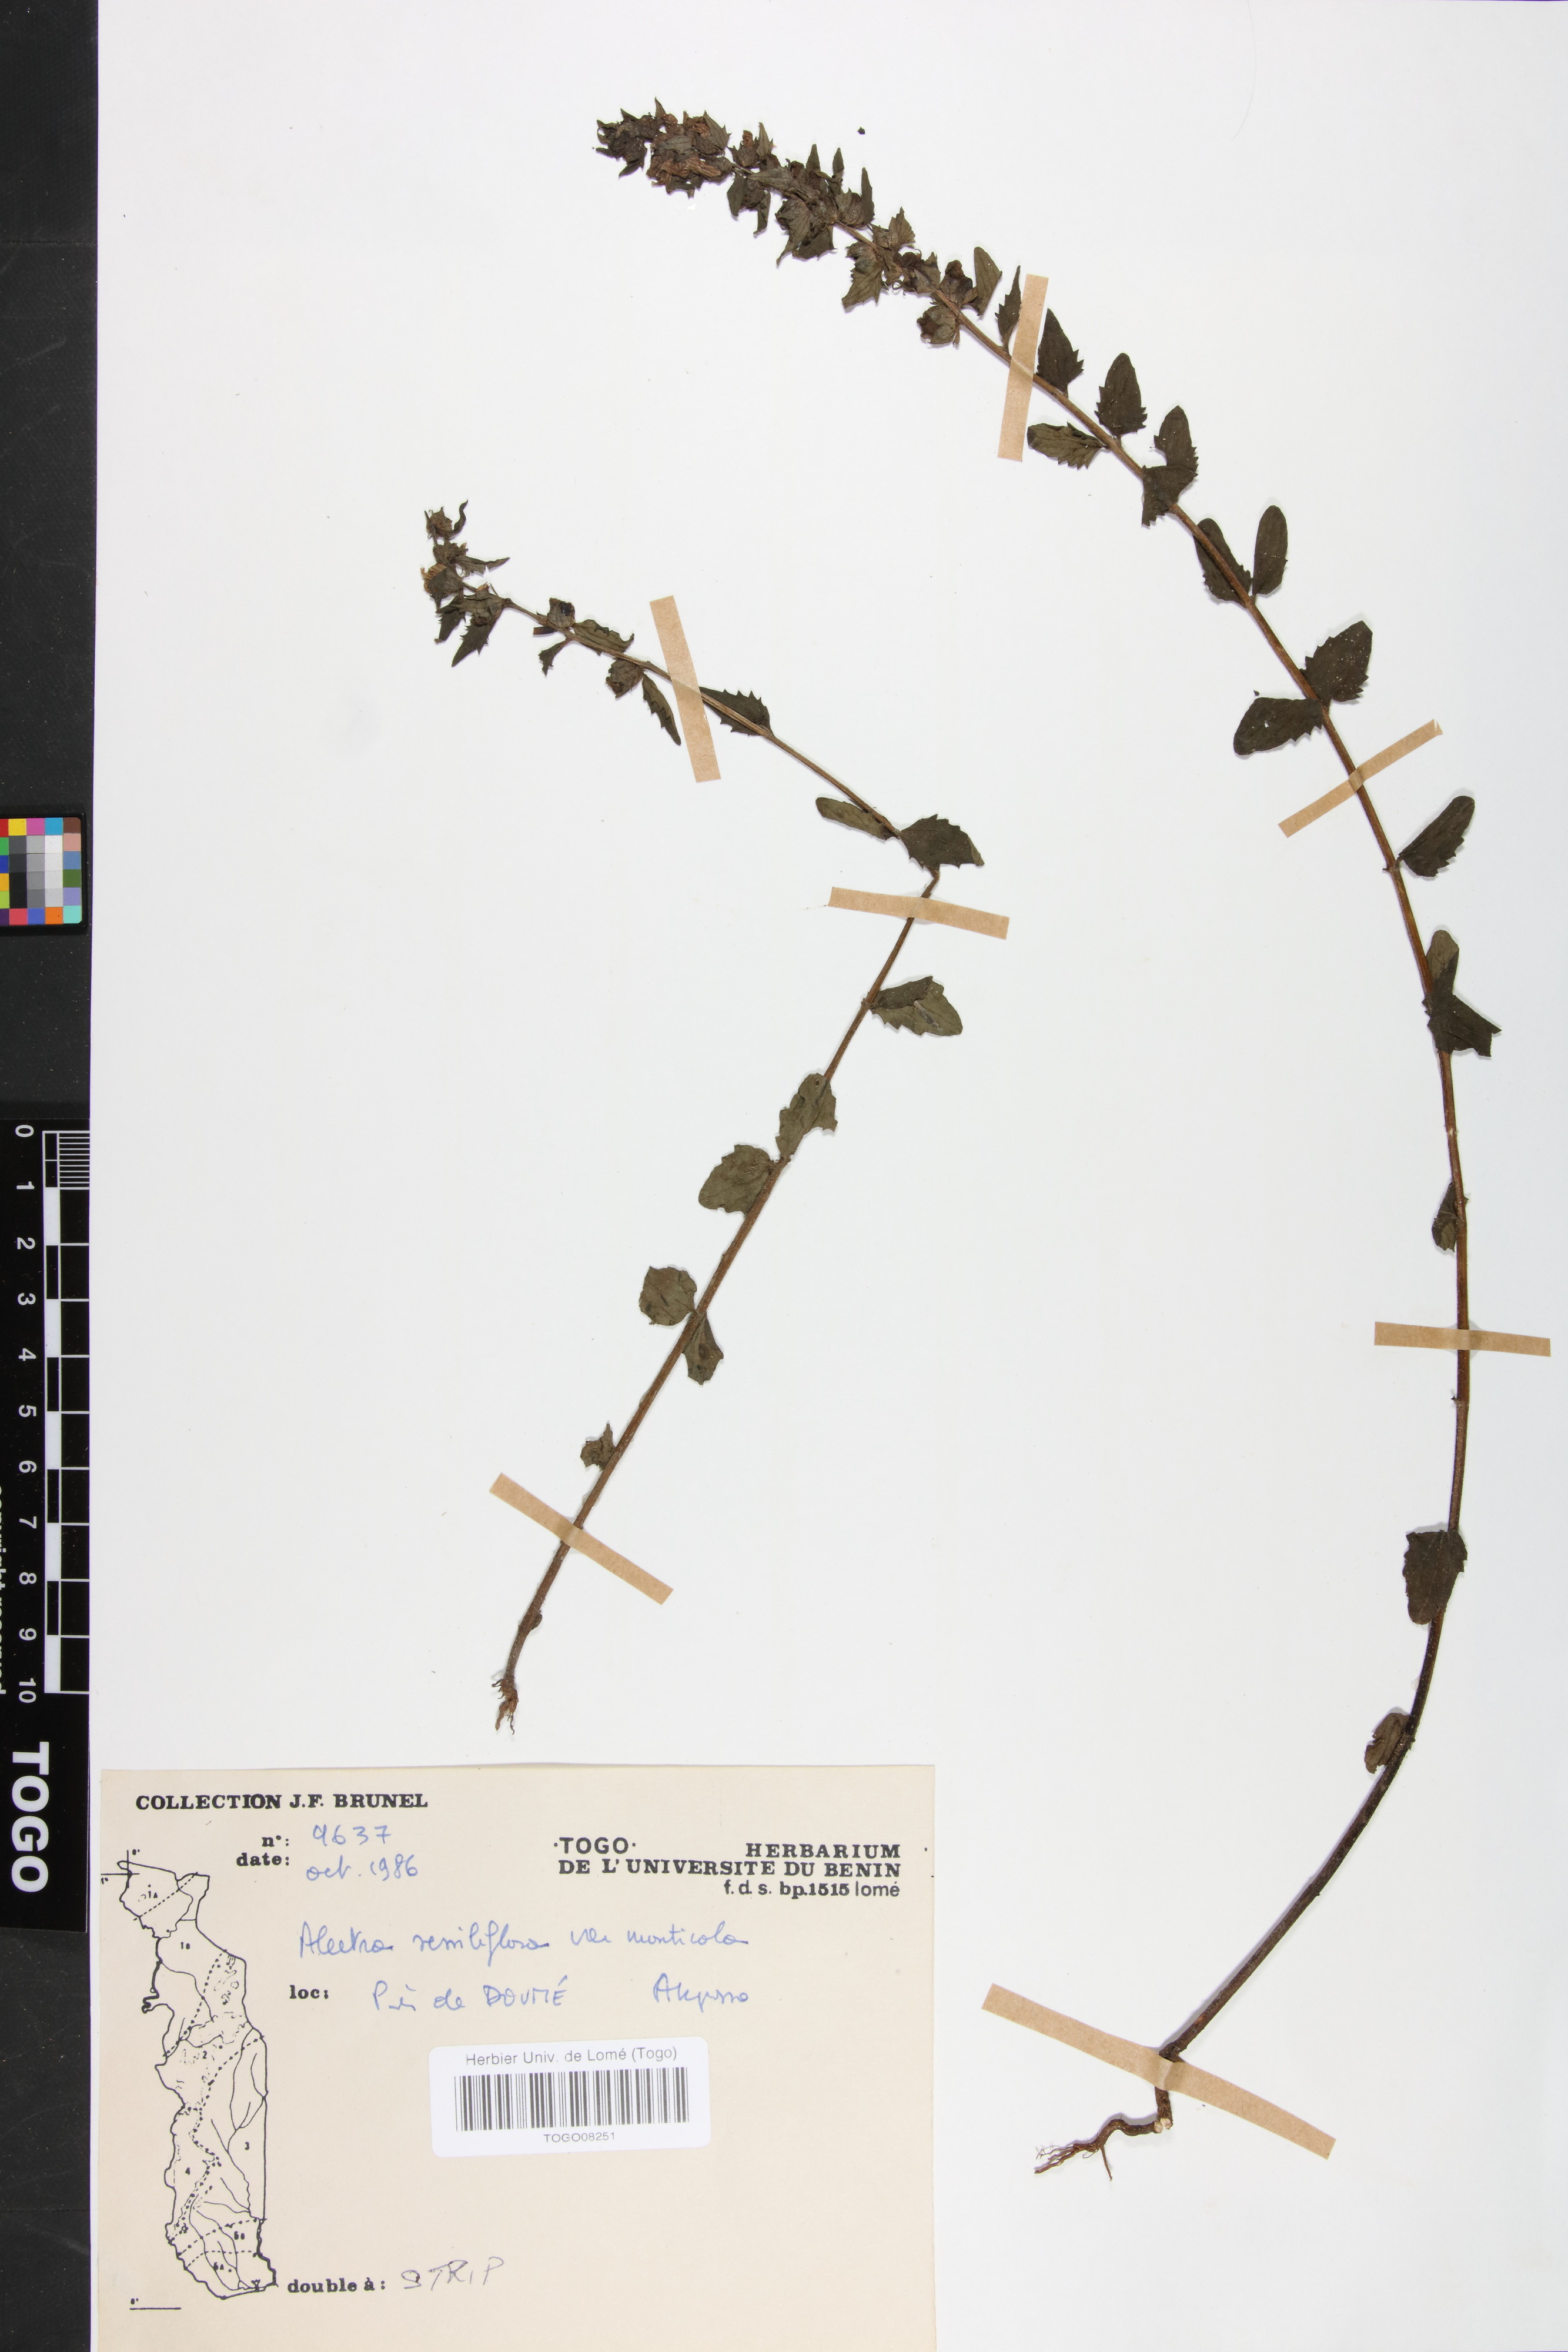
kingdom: Plantae
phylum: Tracheophyta
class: Magnoliopsida
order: Lamiales
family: Orobanchaceae
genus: Alectra
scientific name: Alectra sessiliflora
